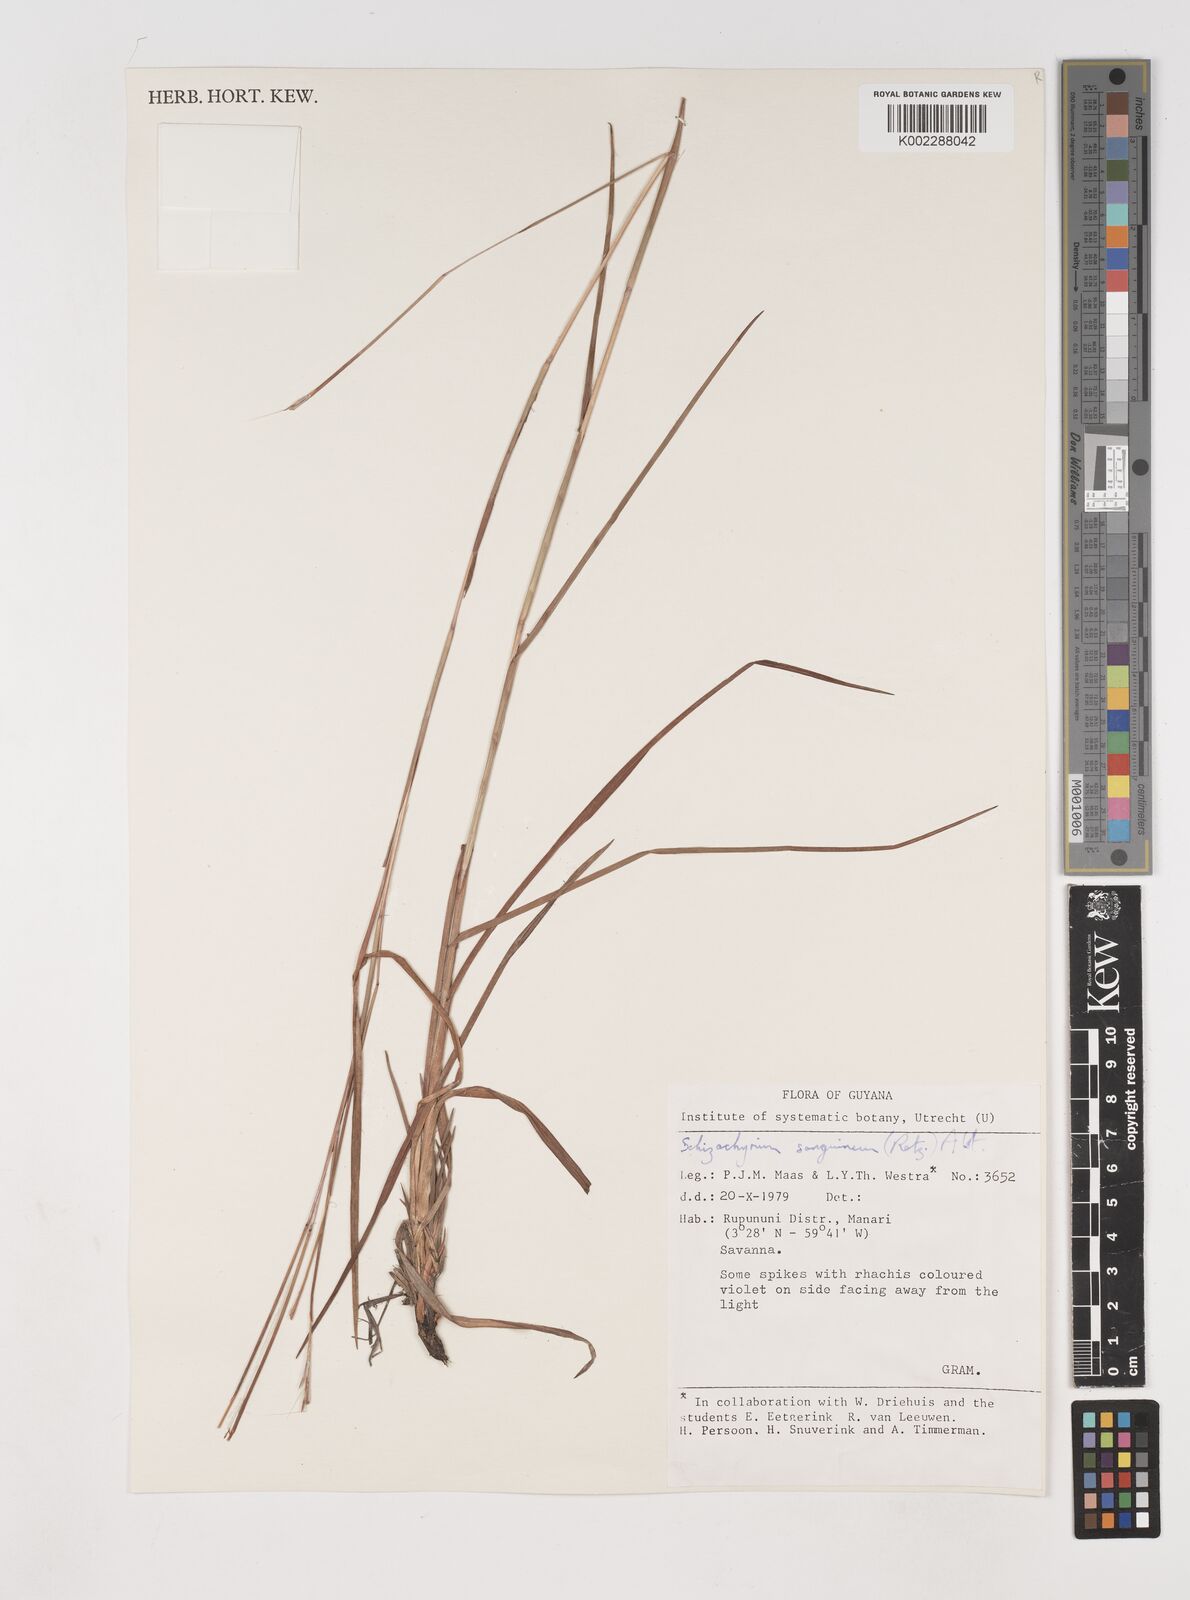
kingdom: Plantae
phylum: Tracheophyta
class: Liliopsida
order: Poales
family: Poaceae
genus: Schizachyrium
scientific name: Schizachyrium sanguineum
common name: Crimson bluestem
